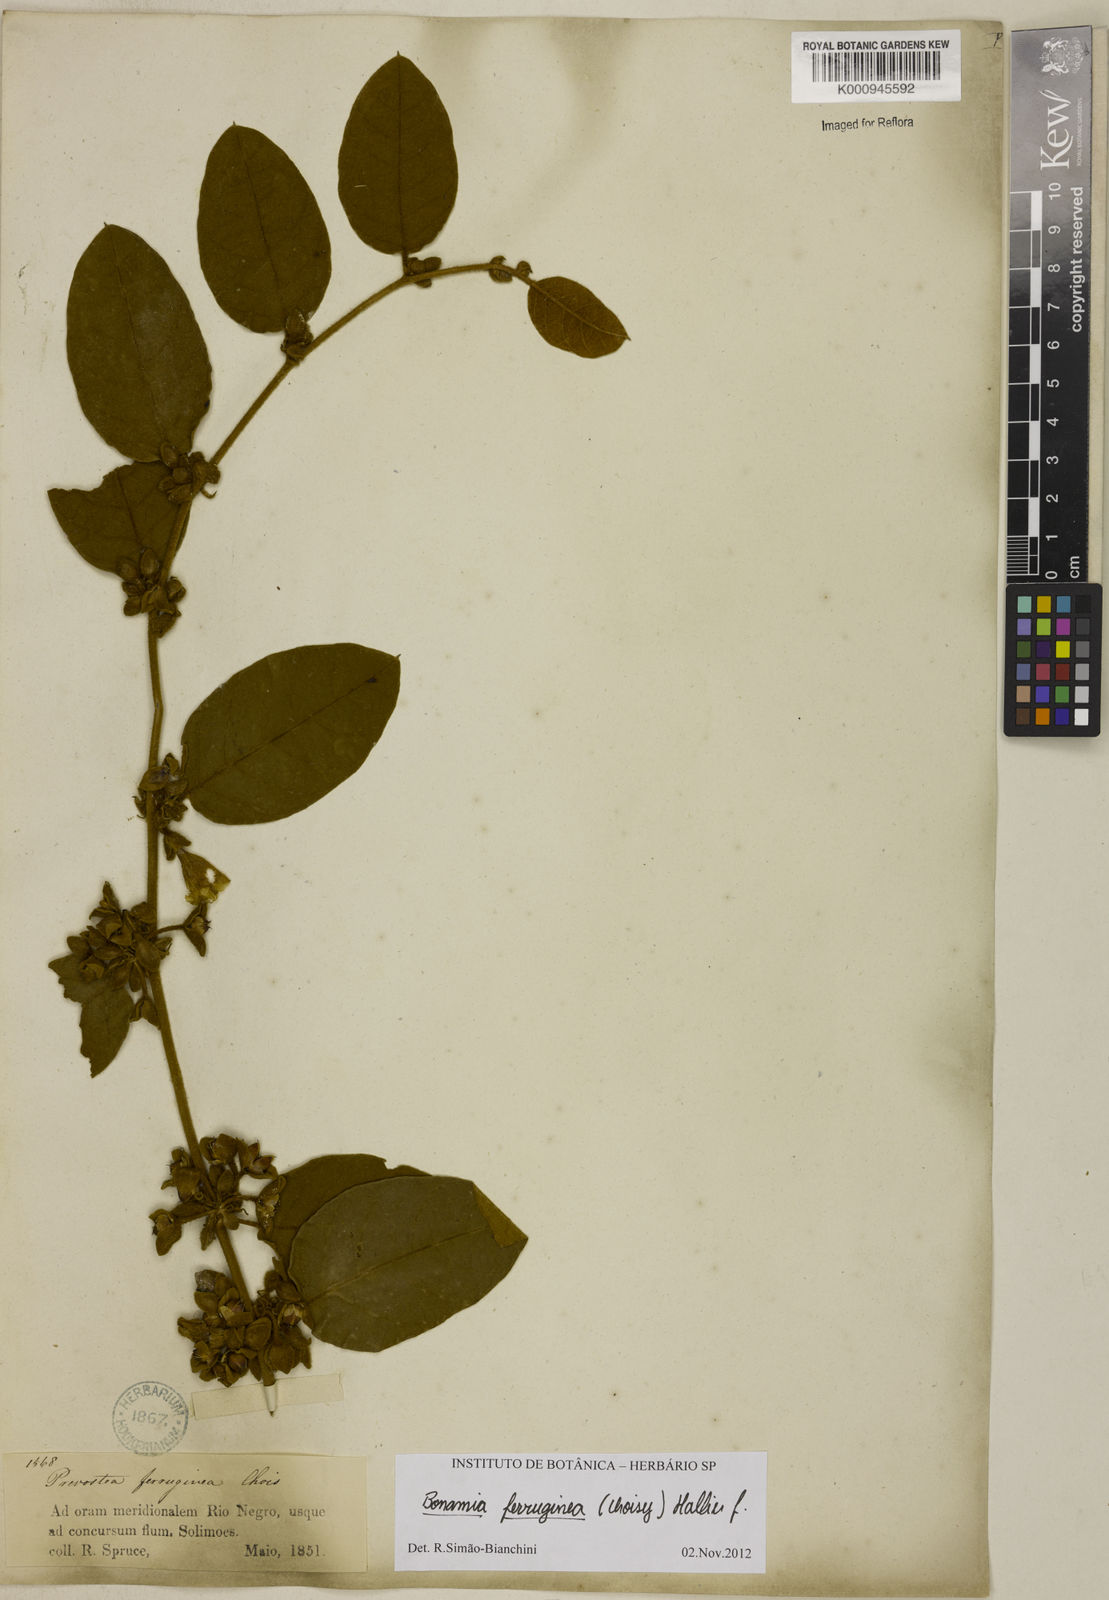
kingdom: Plantae
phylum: Tracheophyta
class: Magnoliopsida
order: Solanales
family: Convolvulaceae
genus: Bonamia
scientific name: Bonamia ferruginea
